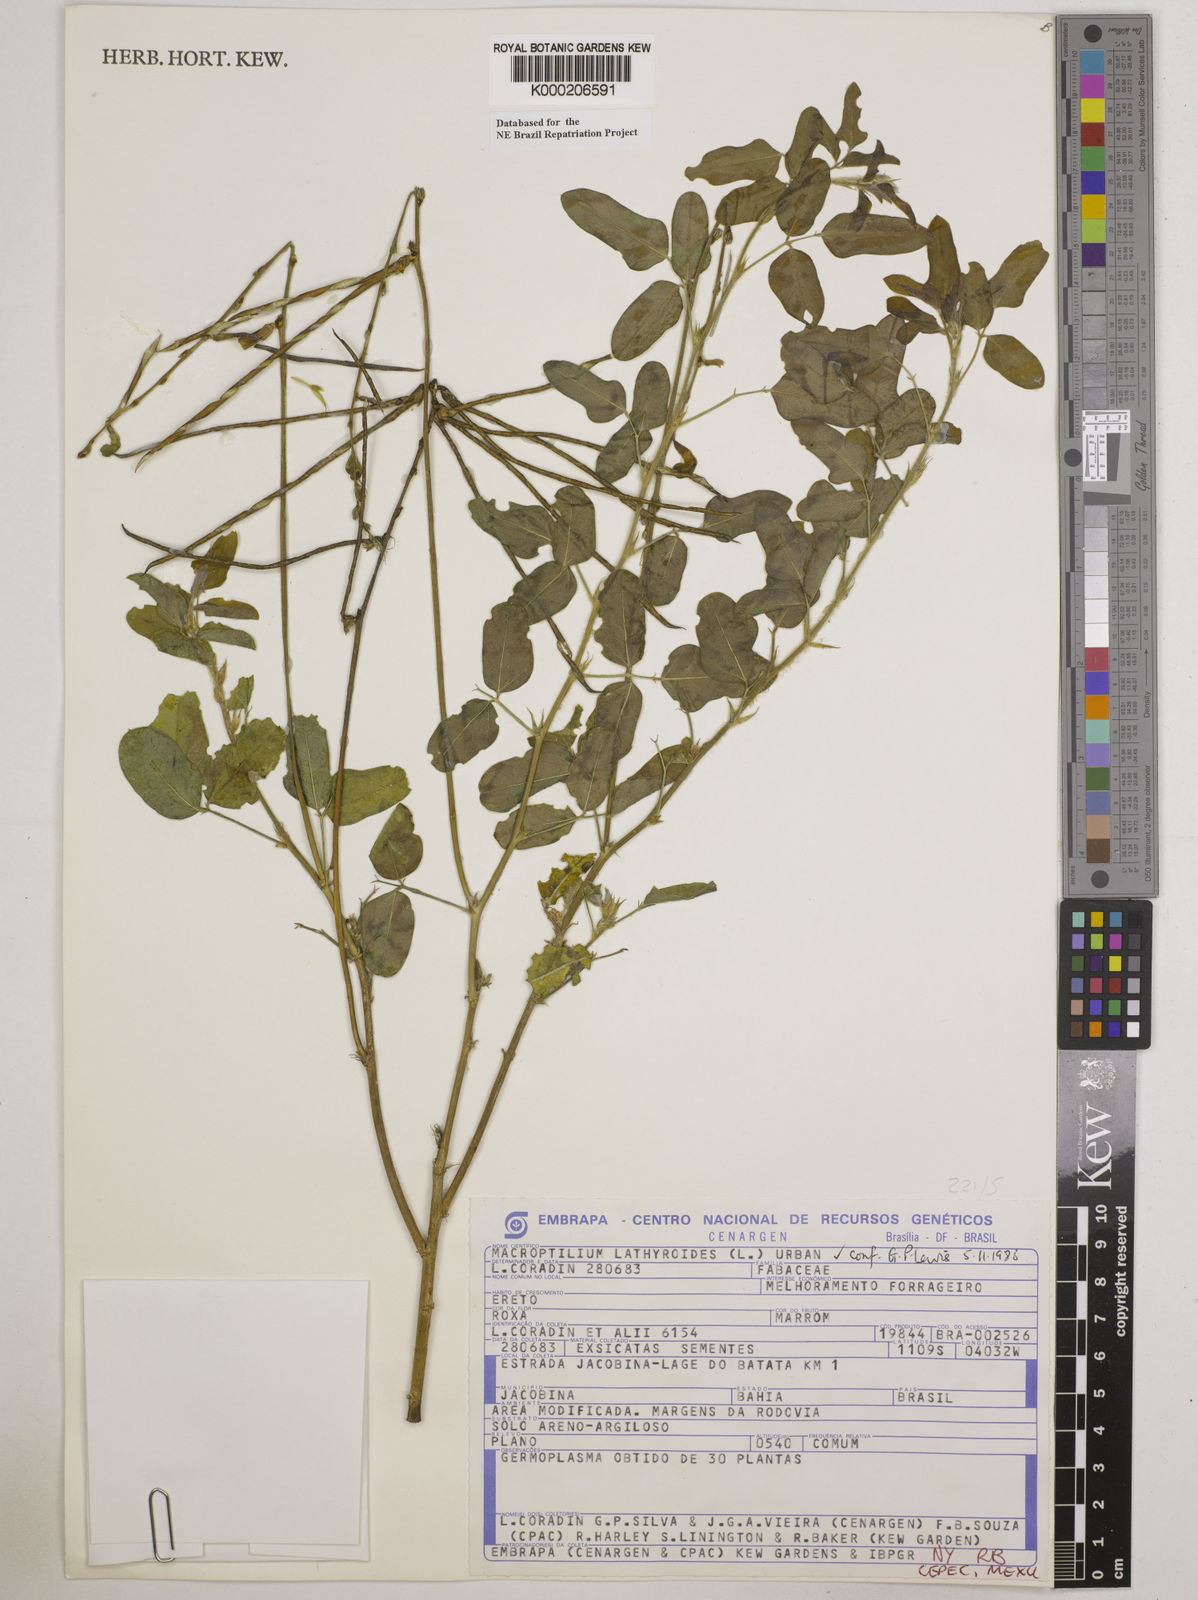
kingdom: Plantae
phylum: Tracheophyta
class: Magnoliopsida
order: Fabales
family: Fabaceae
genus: Macroptilium
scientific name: Macroptilium lathyroides
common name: Wild bushbean
